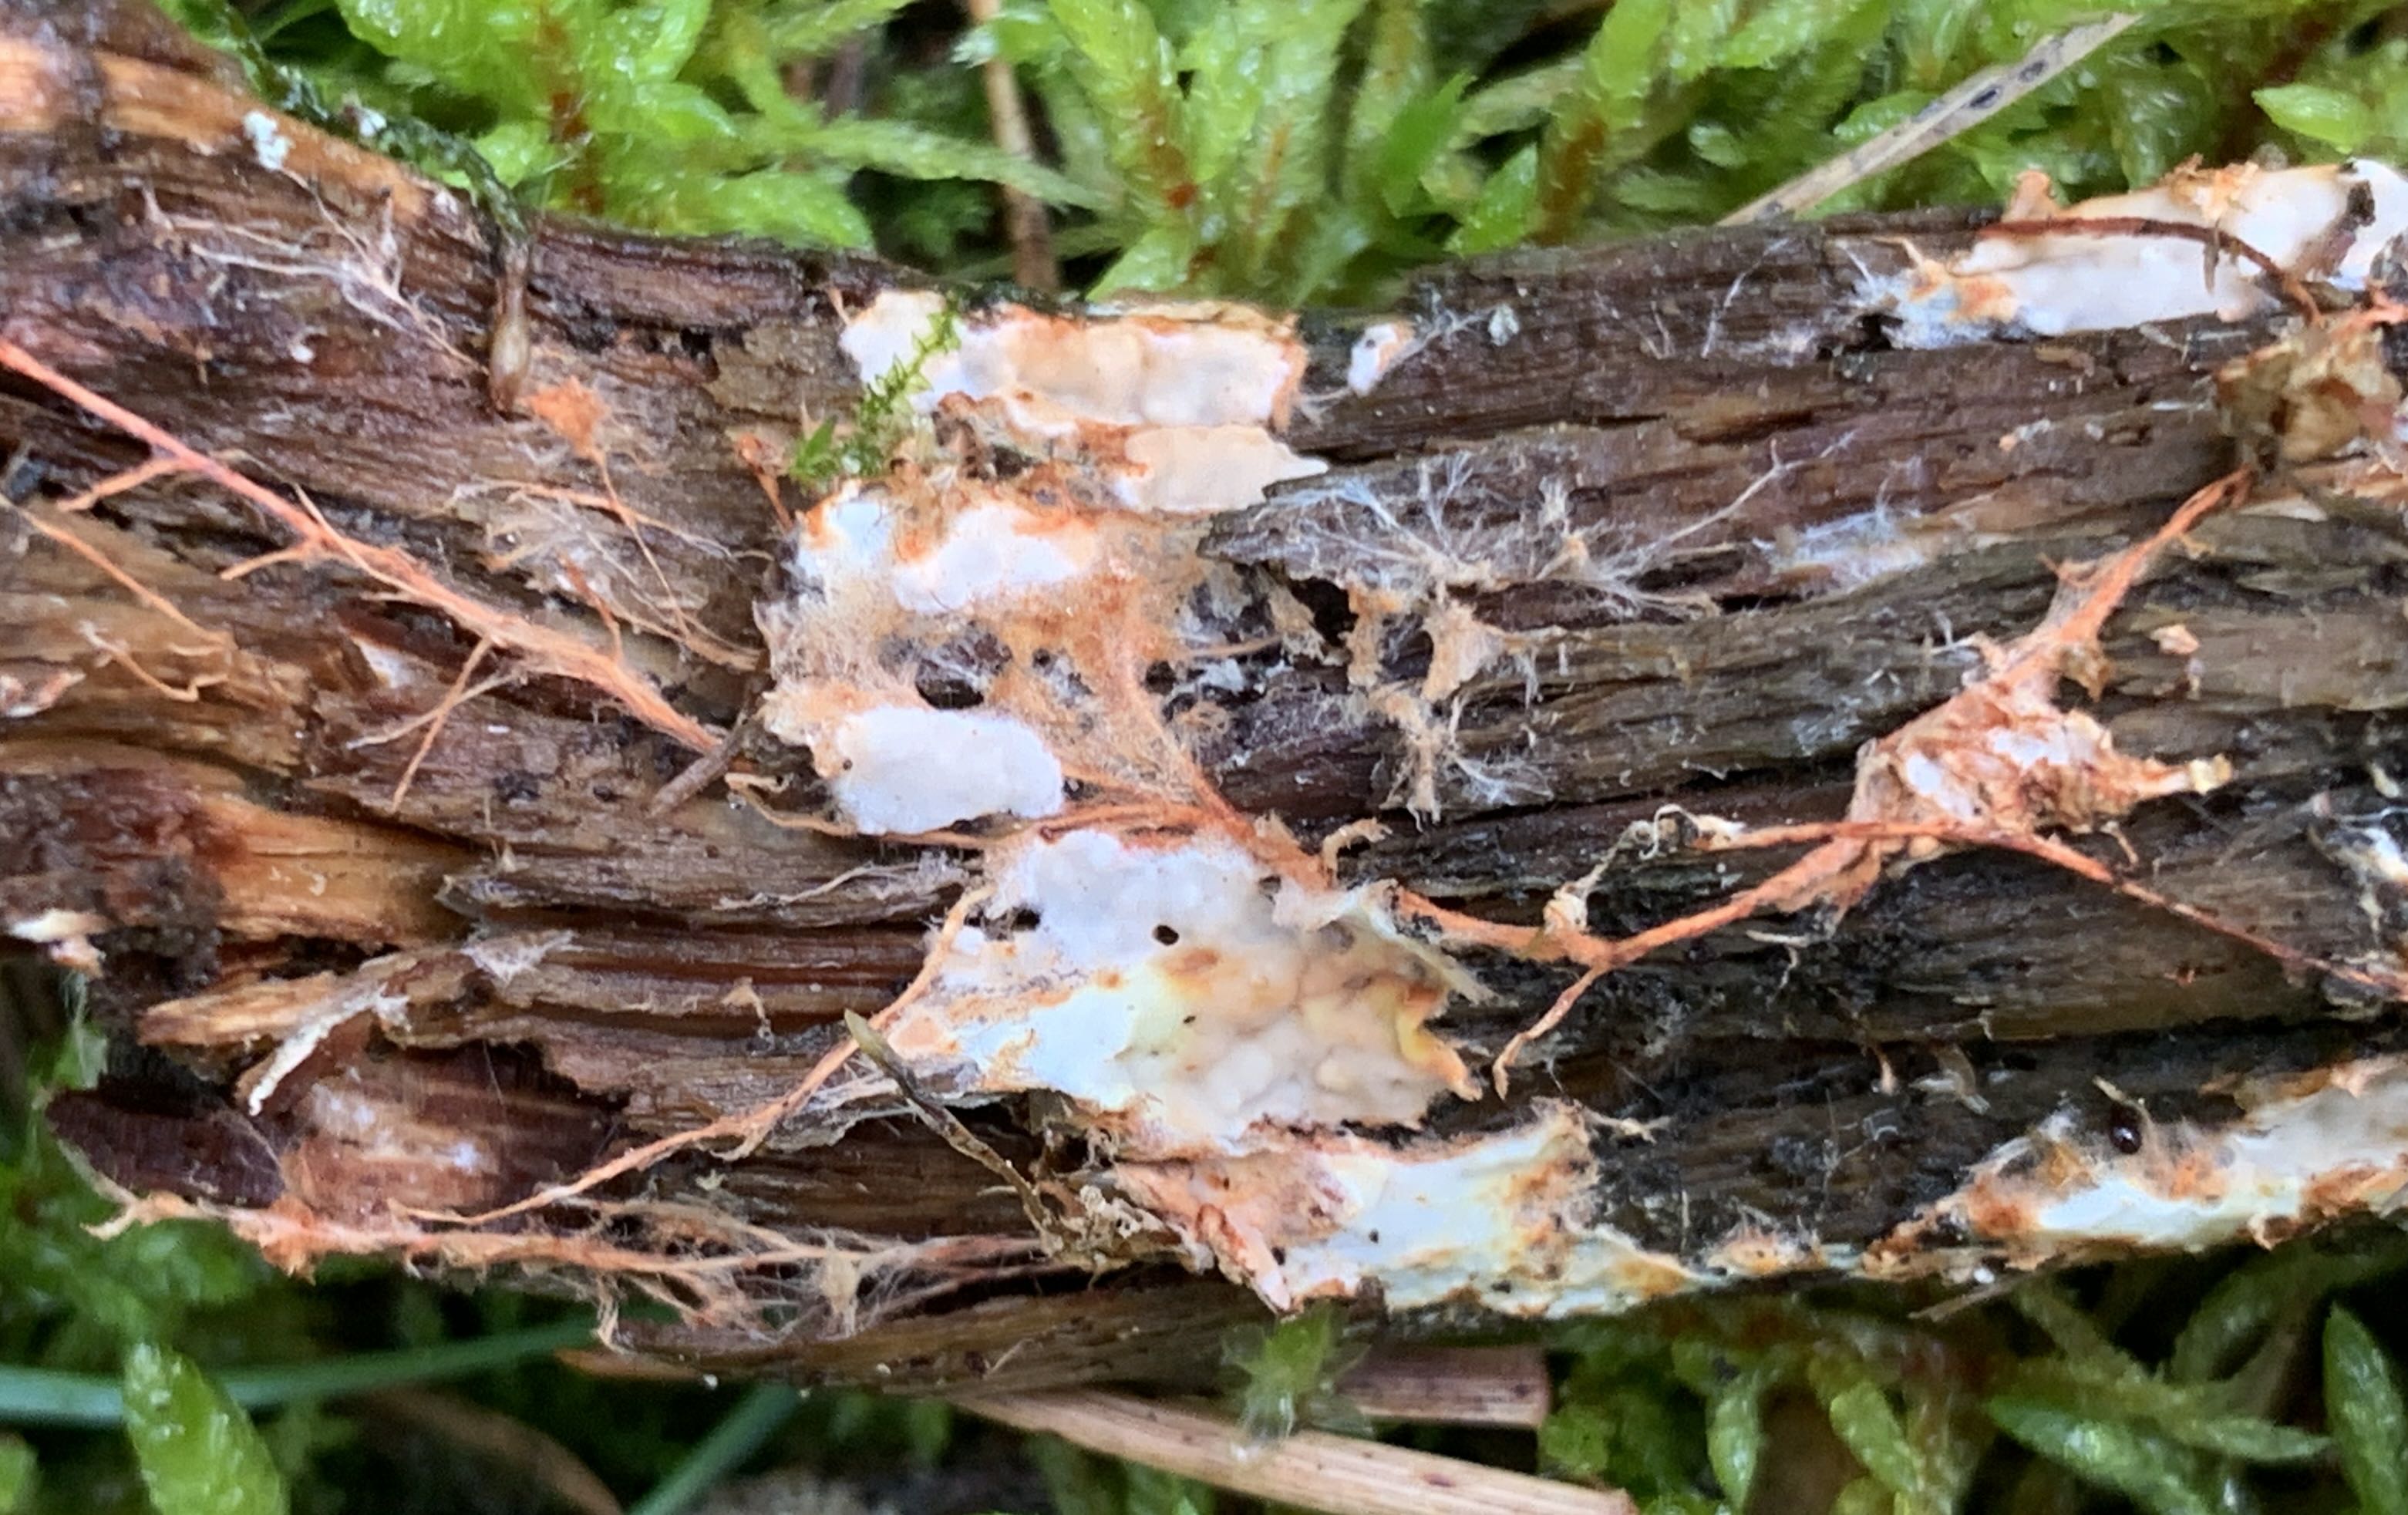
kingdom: Fungi
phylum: Basidiomycota
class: Agaricomycetes
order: Polyporales
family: Phanerochaetaceae
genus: Atheliachaete
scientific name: Atheliachaete sanguinea
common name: rødmende randtråd
